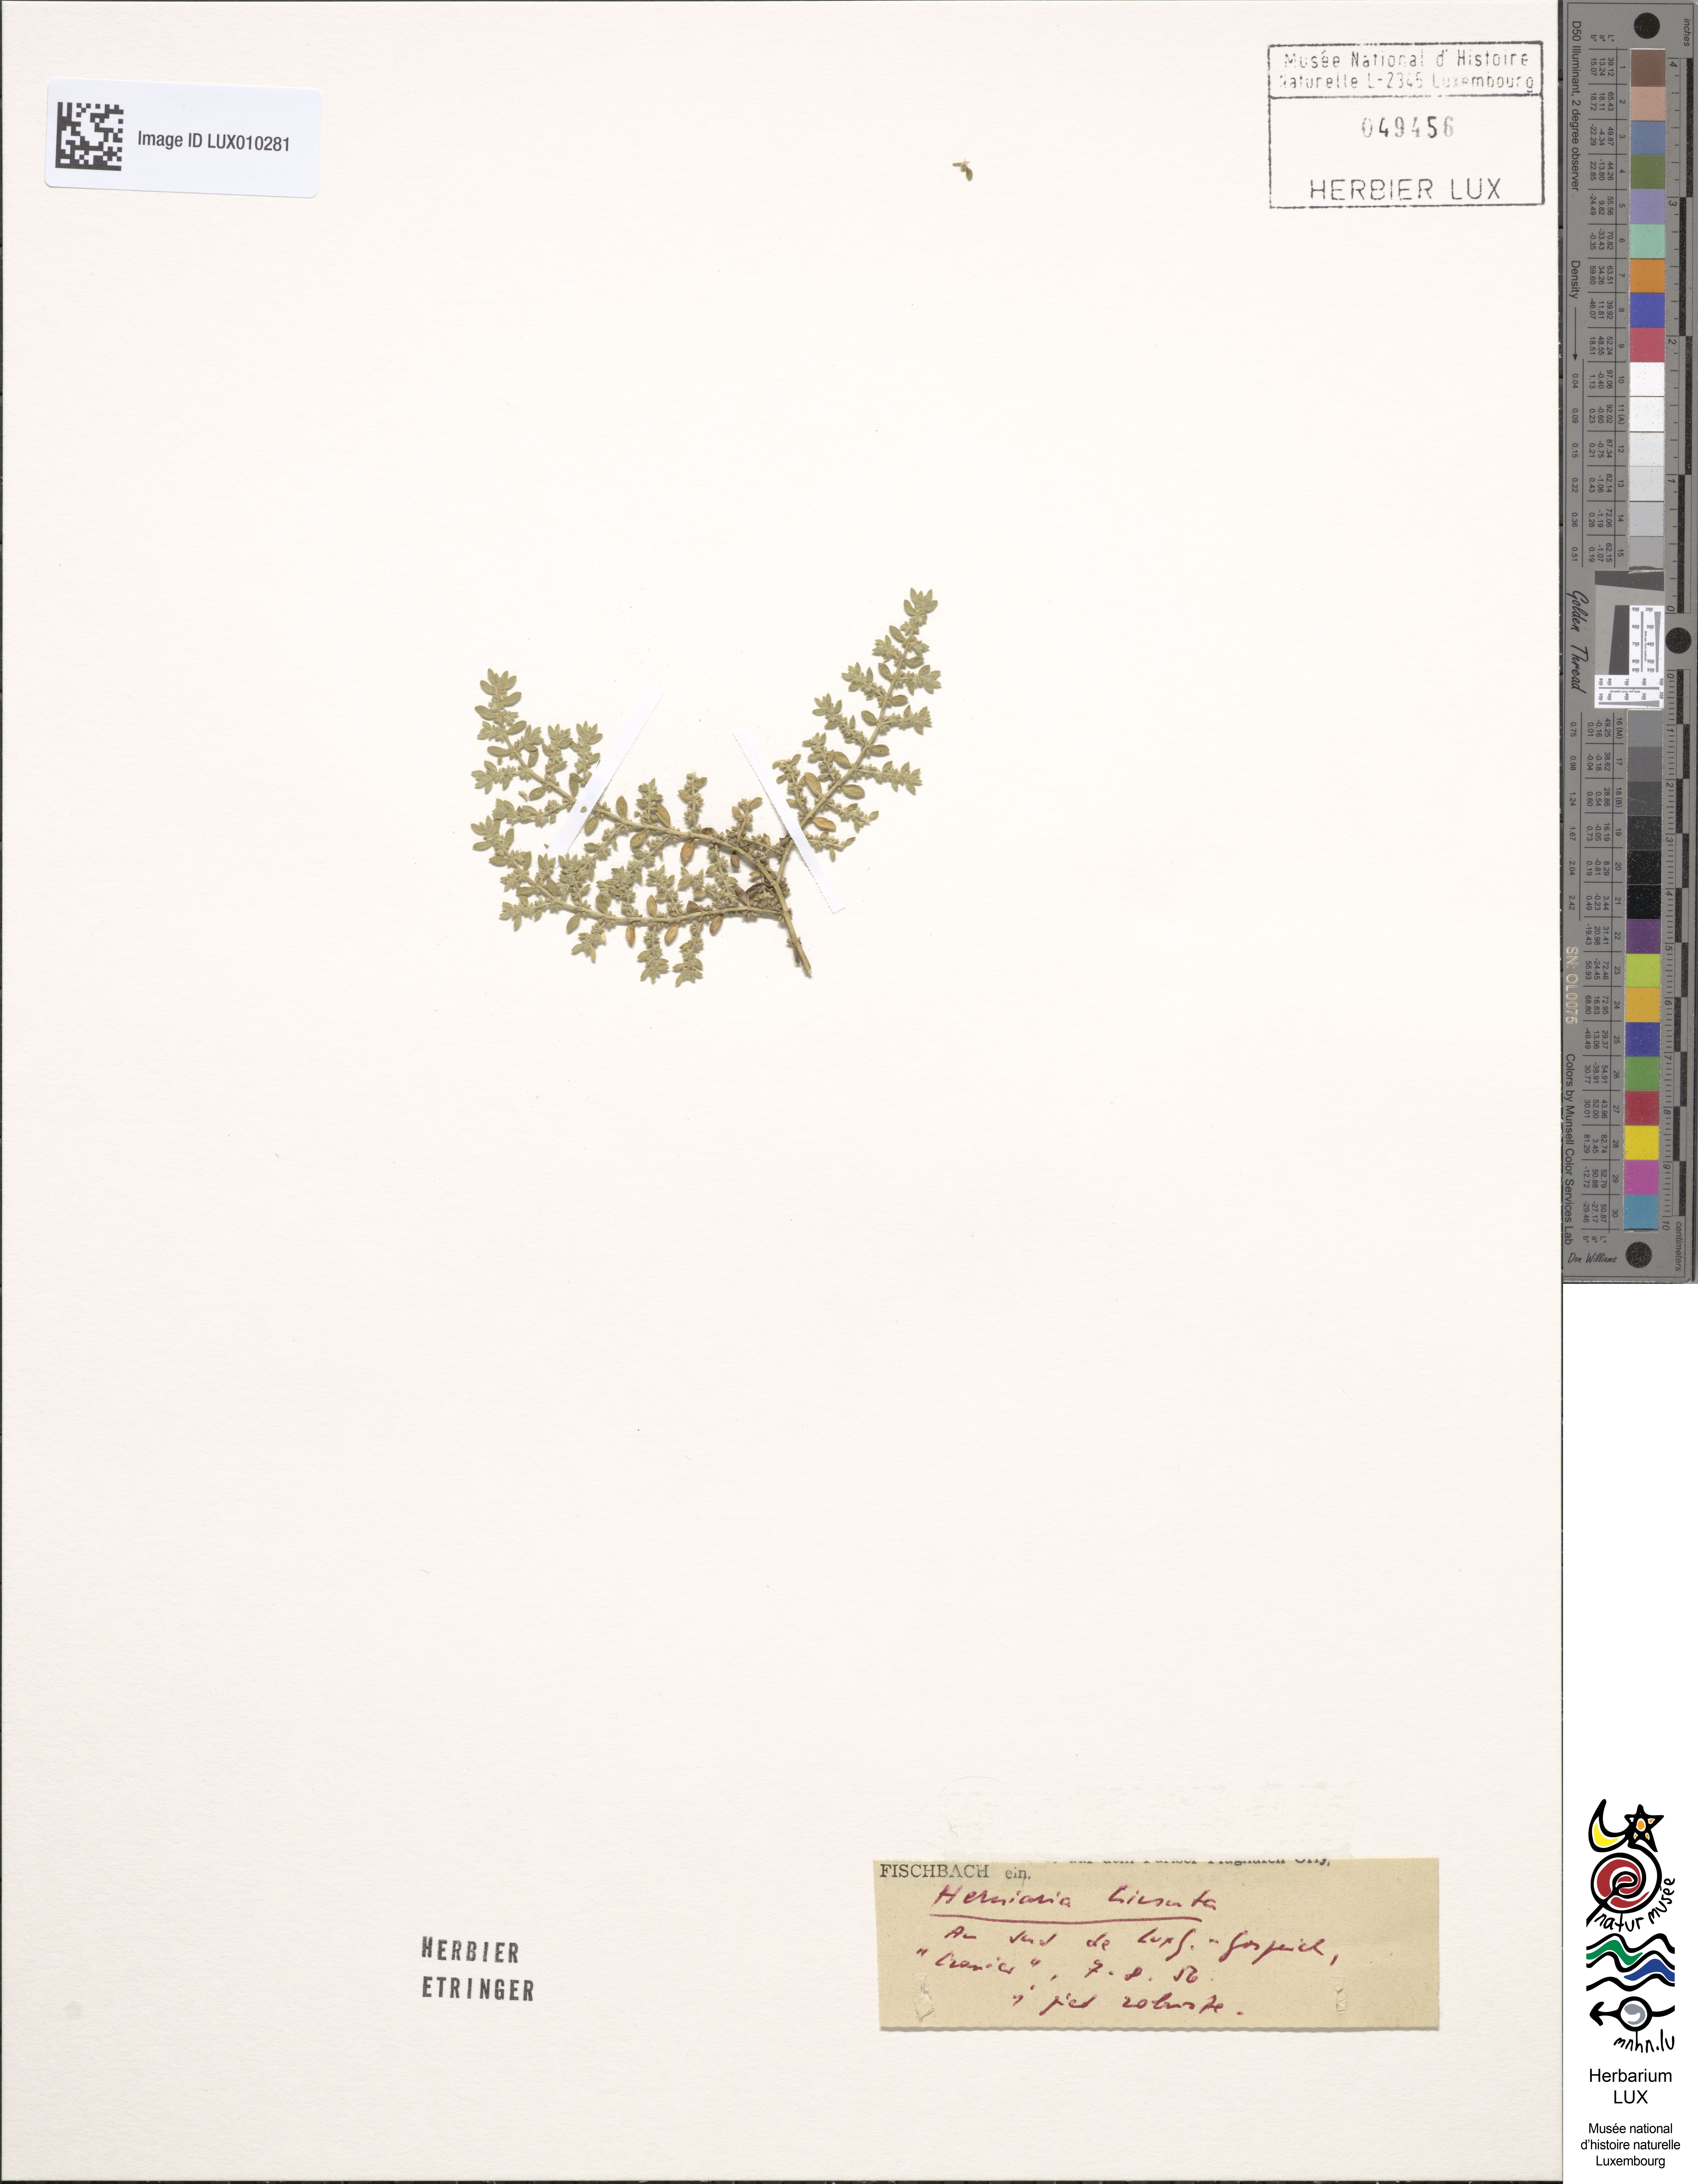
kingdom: Plantae
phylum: Tracheophyta
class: Magnoliopsida
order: Caryophyllales
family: Caryophyllaceae
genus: Herniaria
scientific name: Herniaria hirsuta
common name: Hairy rupturewort
